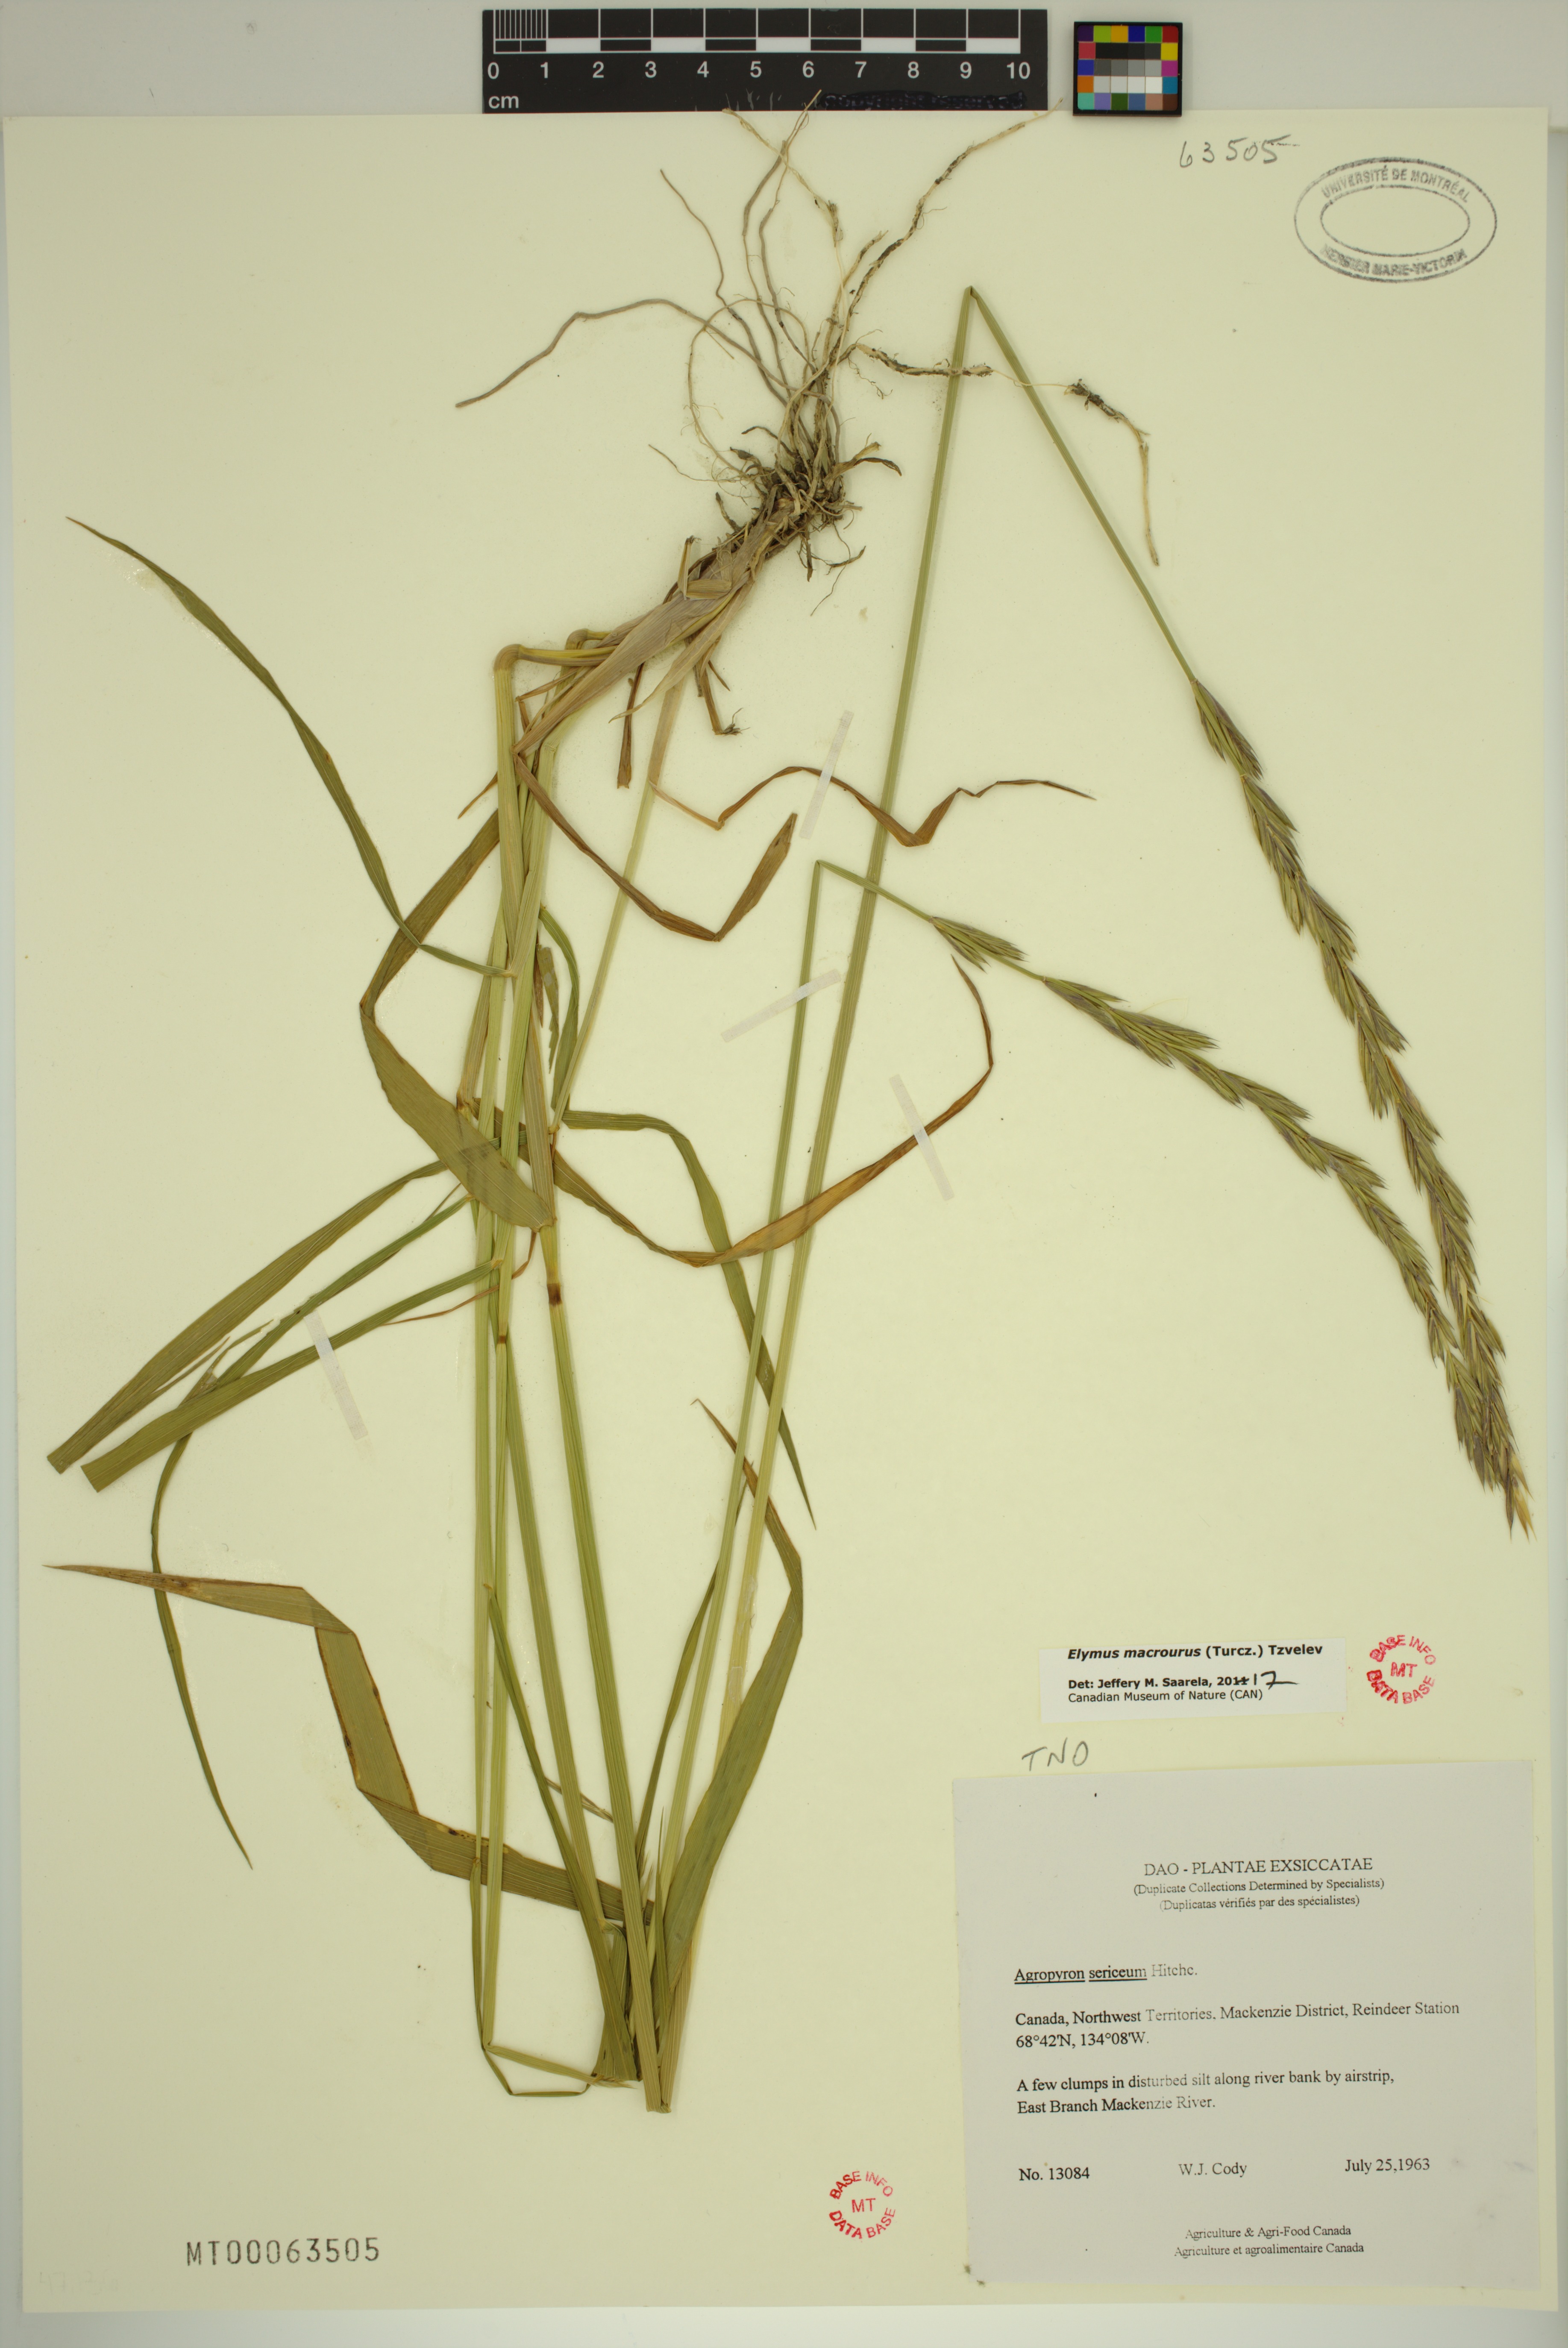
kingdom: Plantae
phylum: Tracheophyta
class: Liliopsida
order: Poales
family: Poaceae
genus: Elymus
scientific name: Elymus macrourus
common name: Northern wheatgrass
